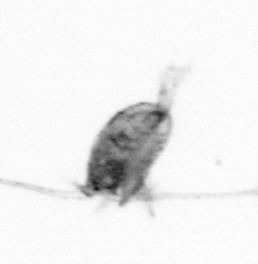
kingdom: Animalia
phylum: Arthropoda
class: Copepoda
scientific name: Copepoda
